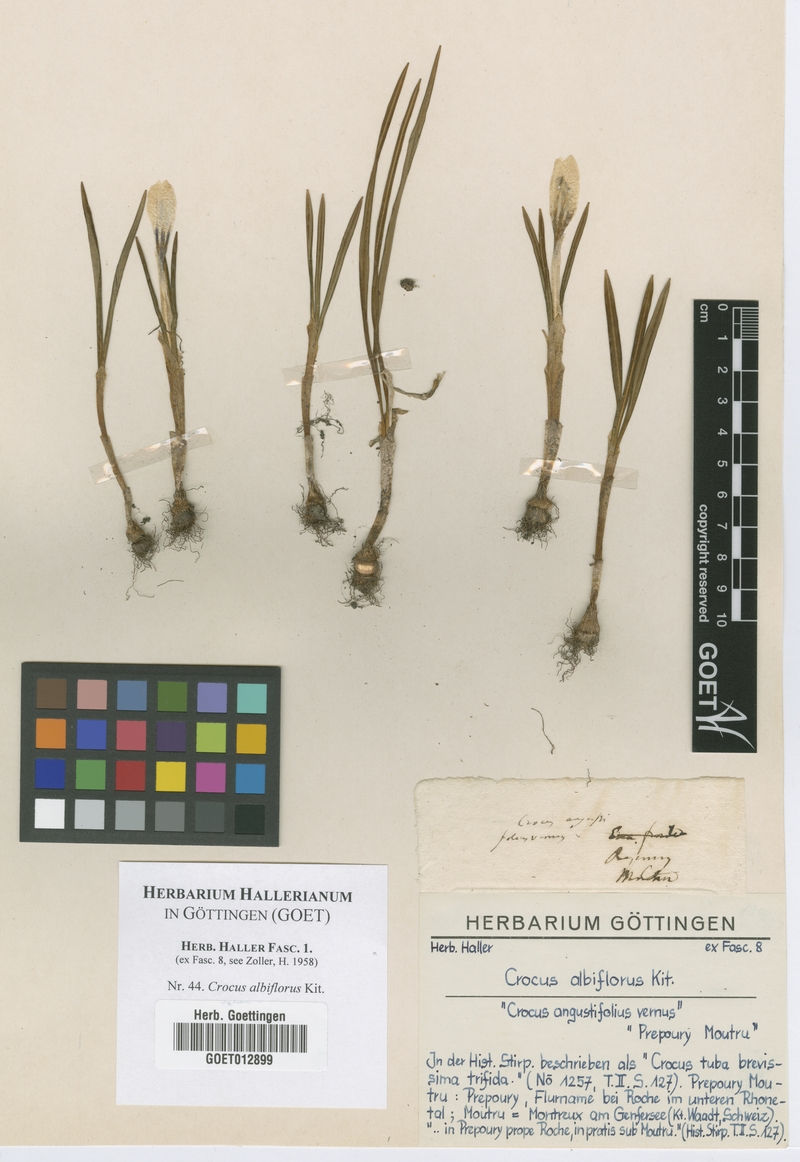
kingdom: Plantae
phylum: Tracheophyta
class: Liliopsida
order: Asparagales
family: Iridaceae
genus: Crocus
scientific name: Crocus vernus
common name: Spring crocus
